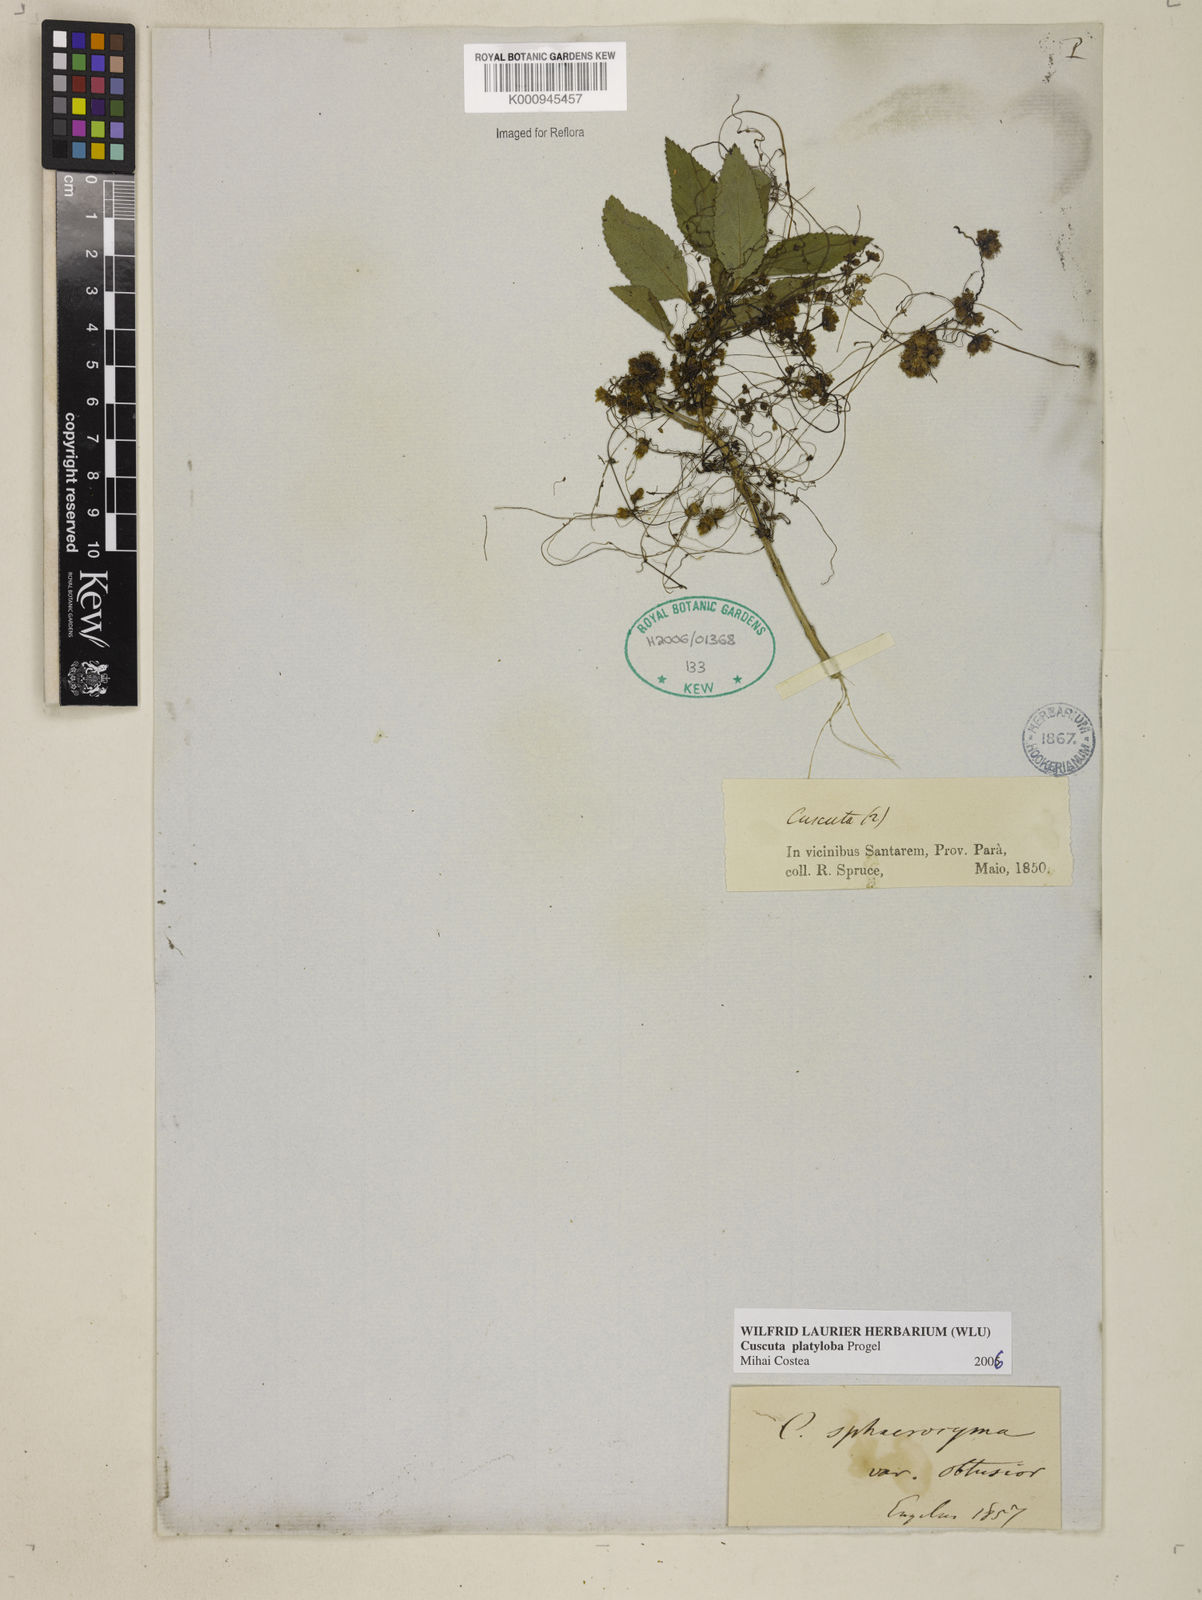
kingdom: Plantae
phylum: Tracheophyta
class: Magnoliopsida
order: Solanales
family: Convolvulaceae
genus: Cuscuta
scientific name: Cuscuta platyloba
